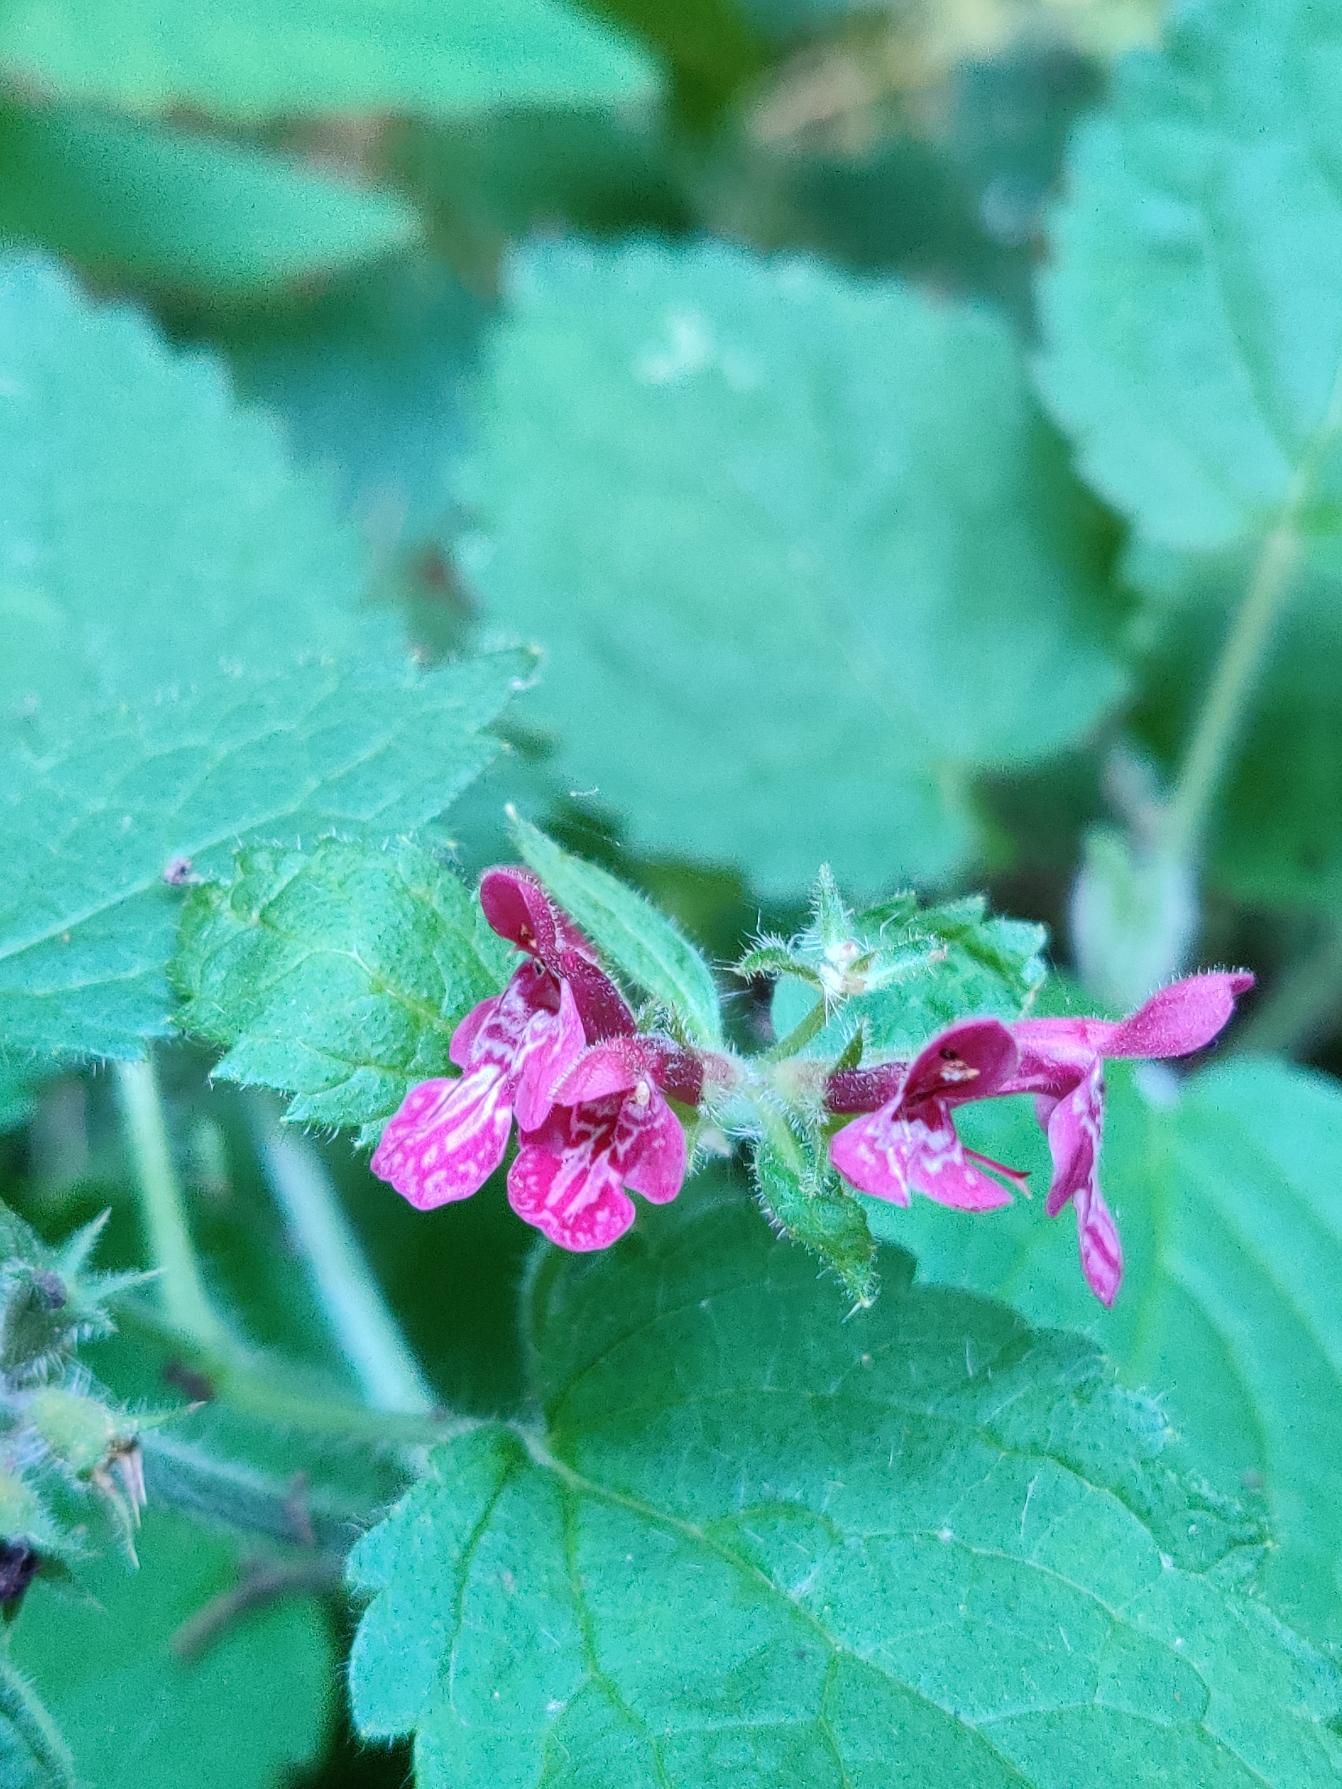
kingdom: Plantae
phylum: Tracheophyta
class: Magnoliopsida
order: Lamiales
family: Lamiaceae
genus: Stachys
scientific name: Stachys sylvatica
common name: Skov-galtetand
